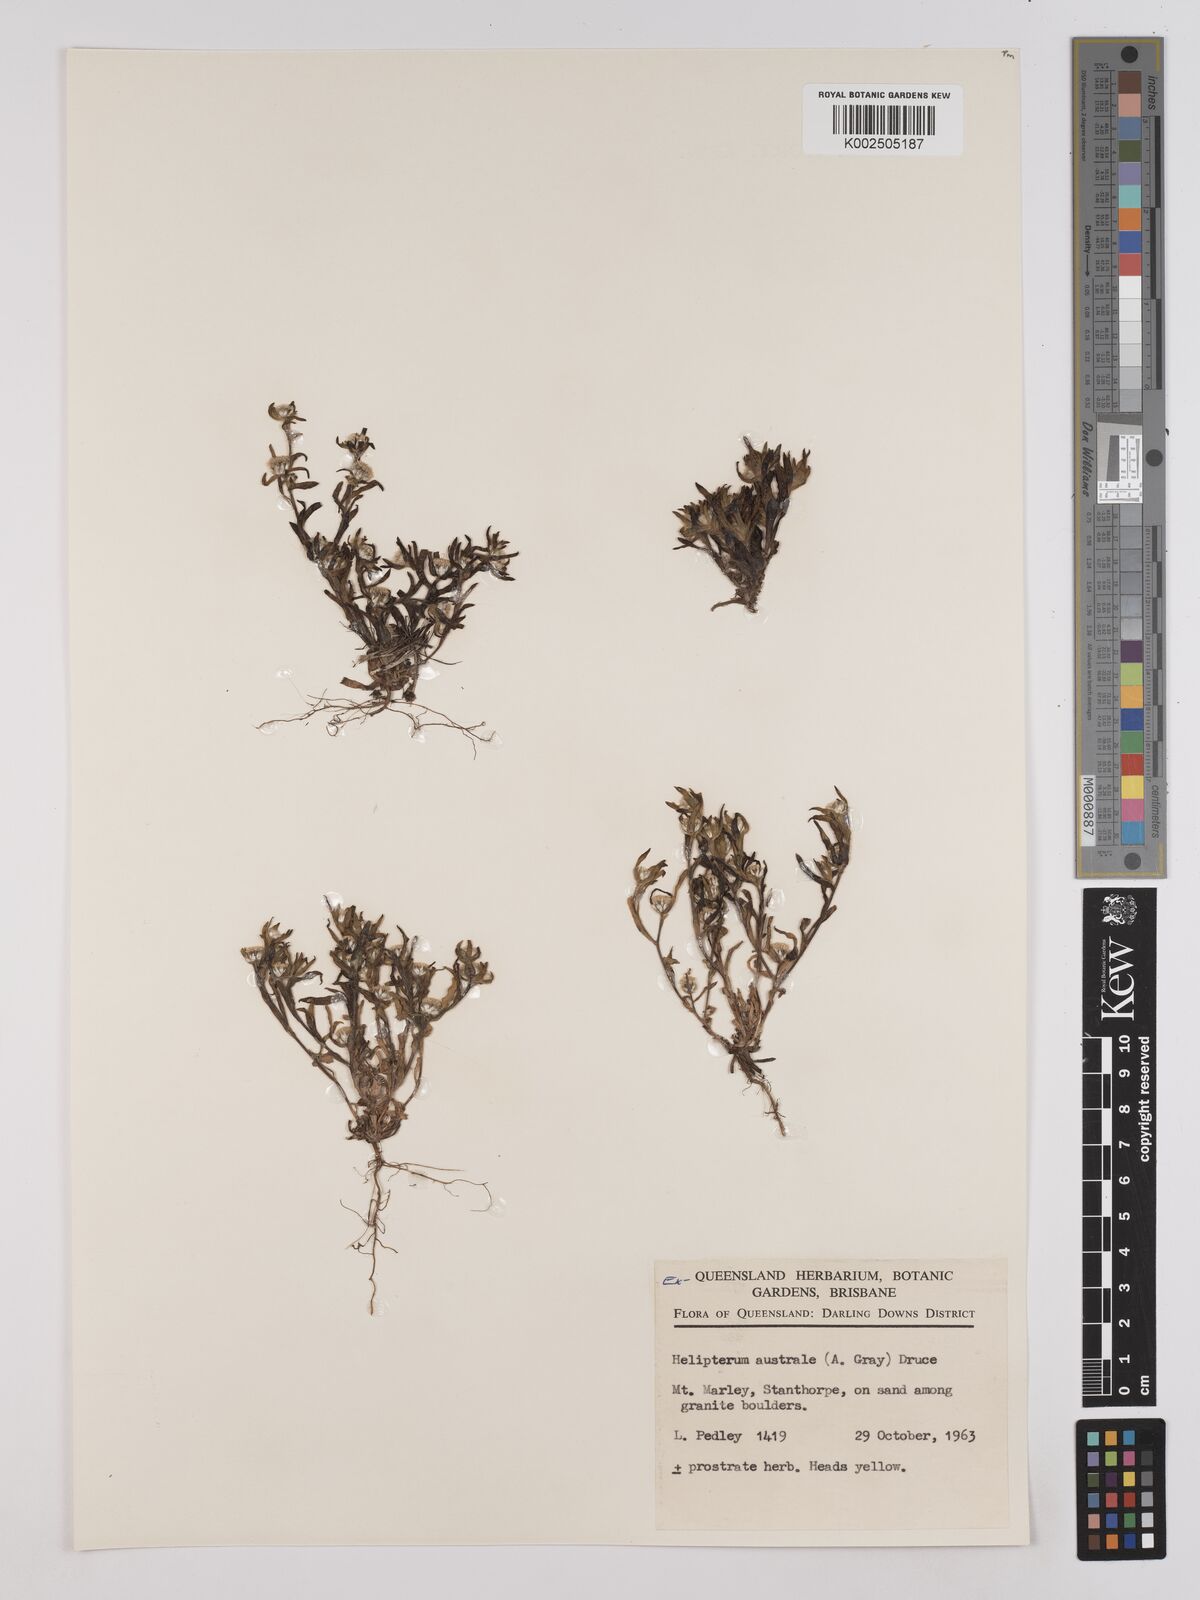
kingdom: Plantae
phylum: Tracheophyta
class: Magnoliopsida
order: Asterales
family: Asteraceae
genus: Triptilodiscus
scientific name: Triptilodiscus pygmaeus
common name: Common sunray
